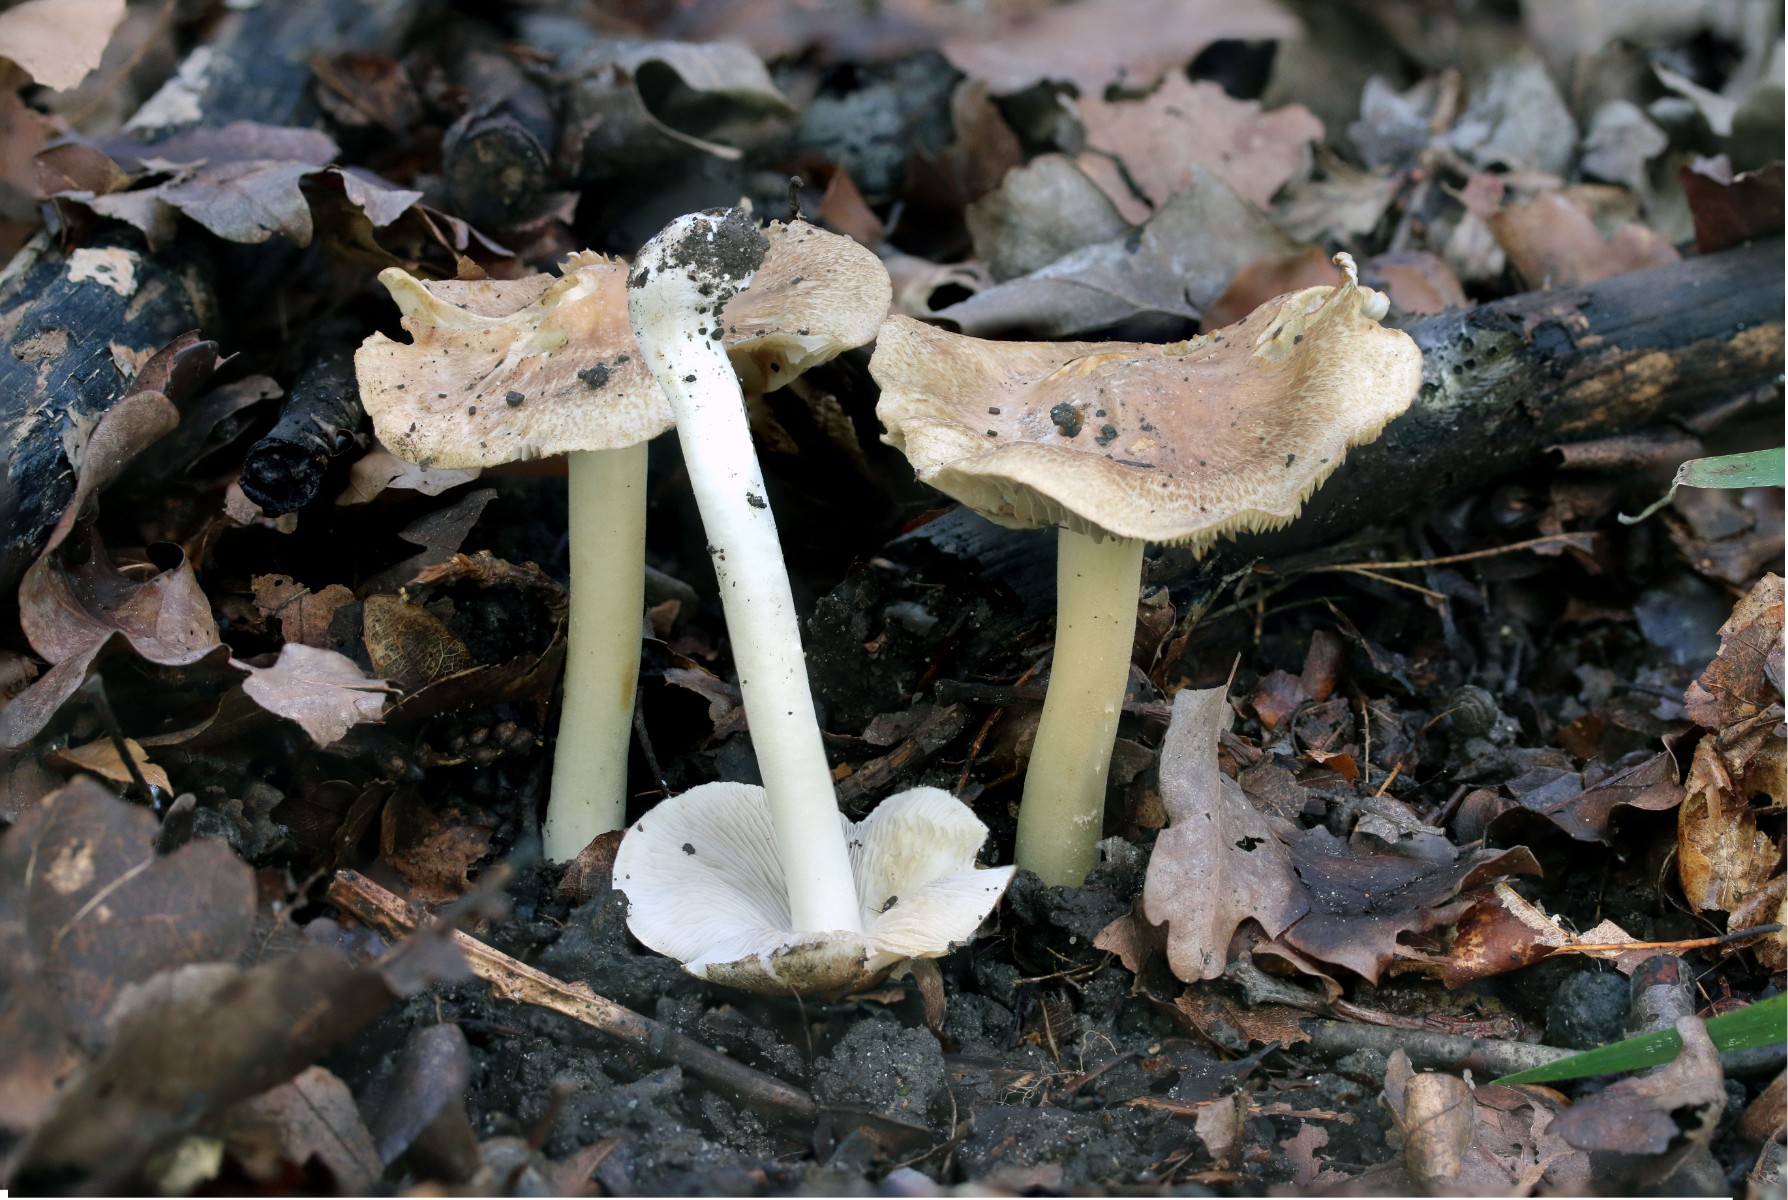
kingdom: Fungi
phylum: Basidiomycota
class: Agaricomycetes
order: Agaricales
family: Inocybaceae
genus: Inocybe
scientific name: Inocybe
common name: trævlhat
